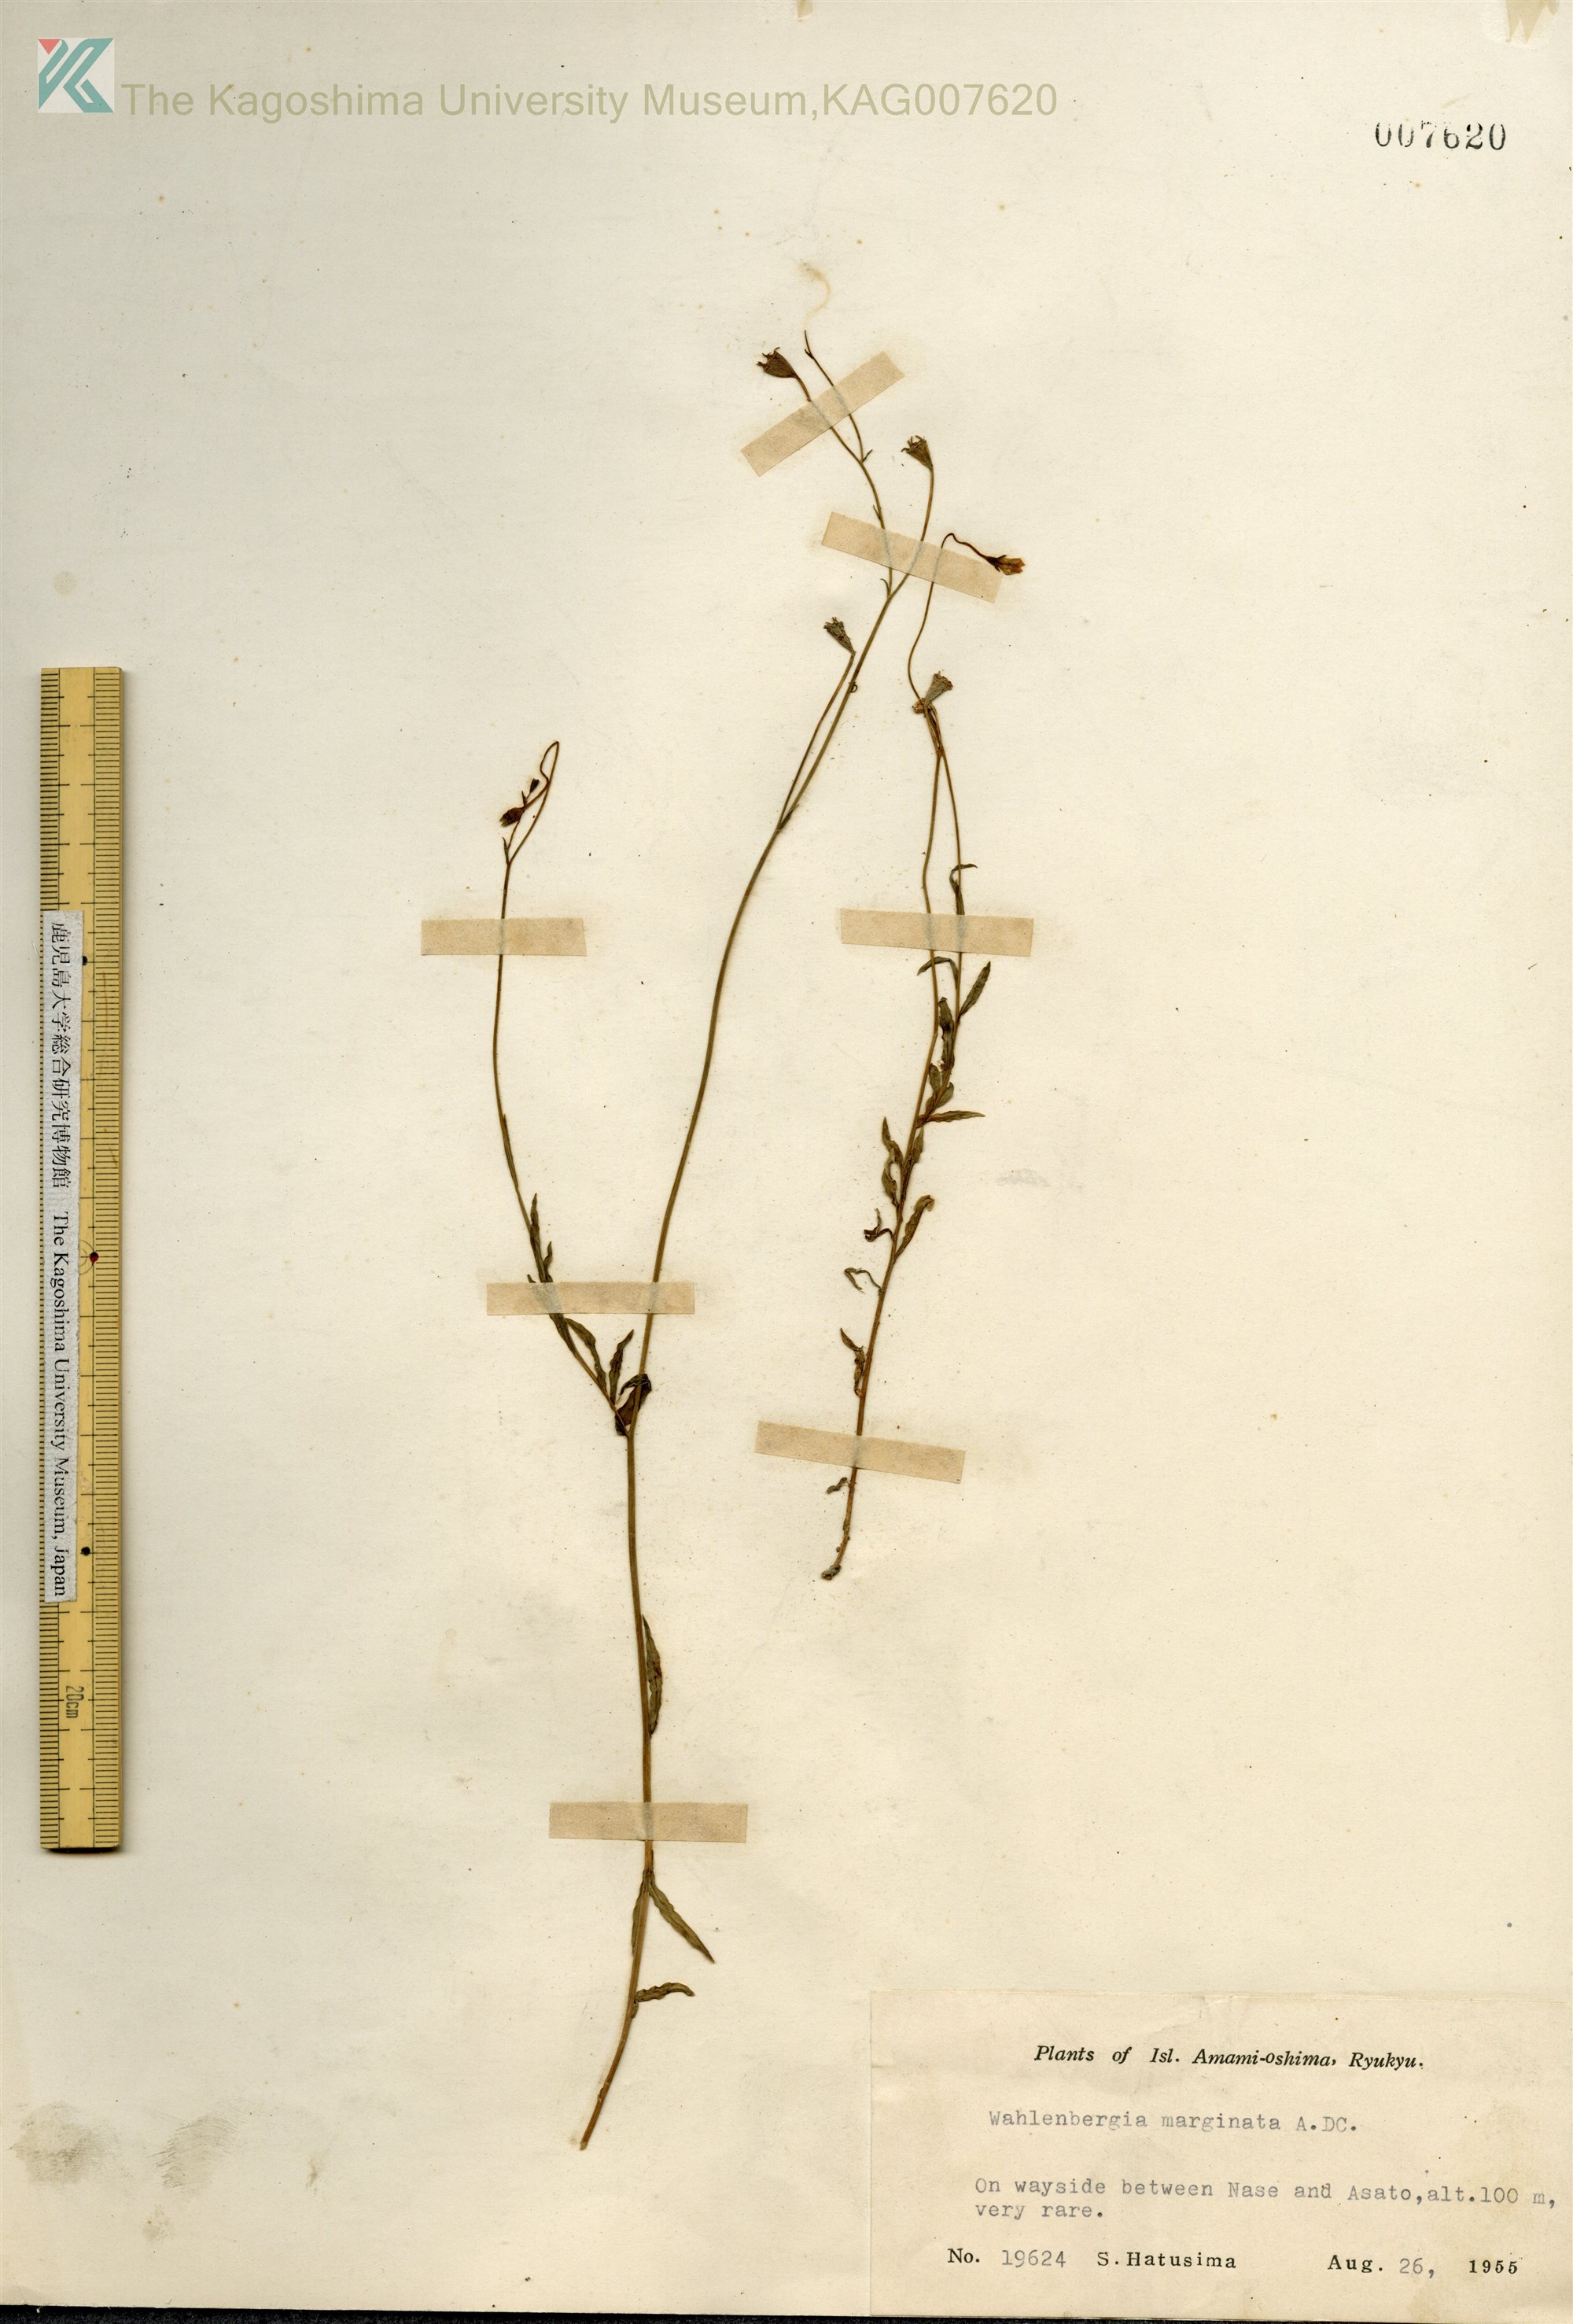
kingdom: Plantae
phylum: Tracheophyta
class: Magnoliopsida
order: Asterales
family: Campanulaceae
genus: Wahlenbergia
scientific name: Wahlenbergia marginata
